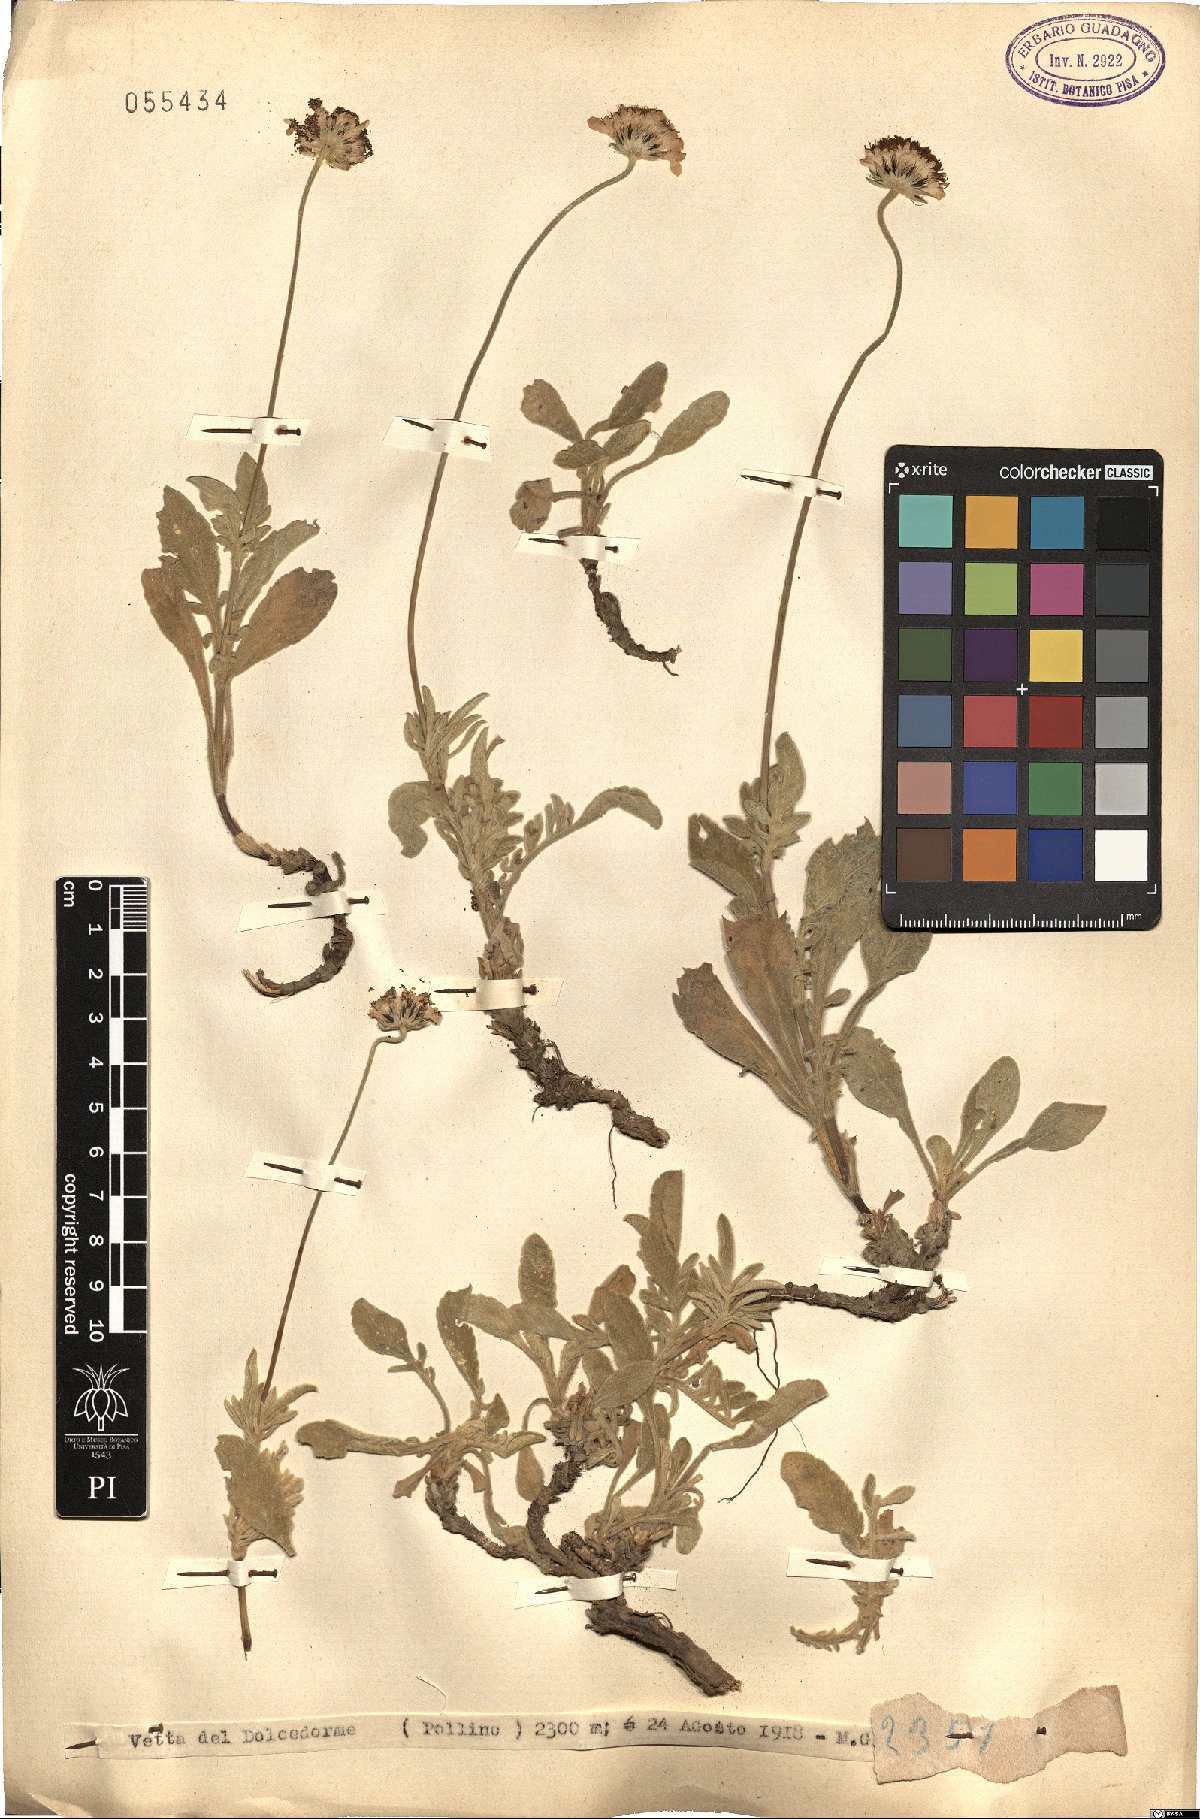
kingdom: Plantae
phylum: Tracheophyta
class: Magnoliopsida
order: Dipsacales
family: Caprifoliaceae
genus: Scabiosa
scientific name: Scabiosa
